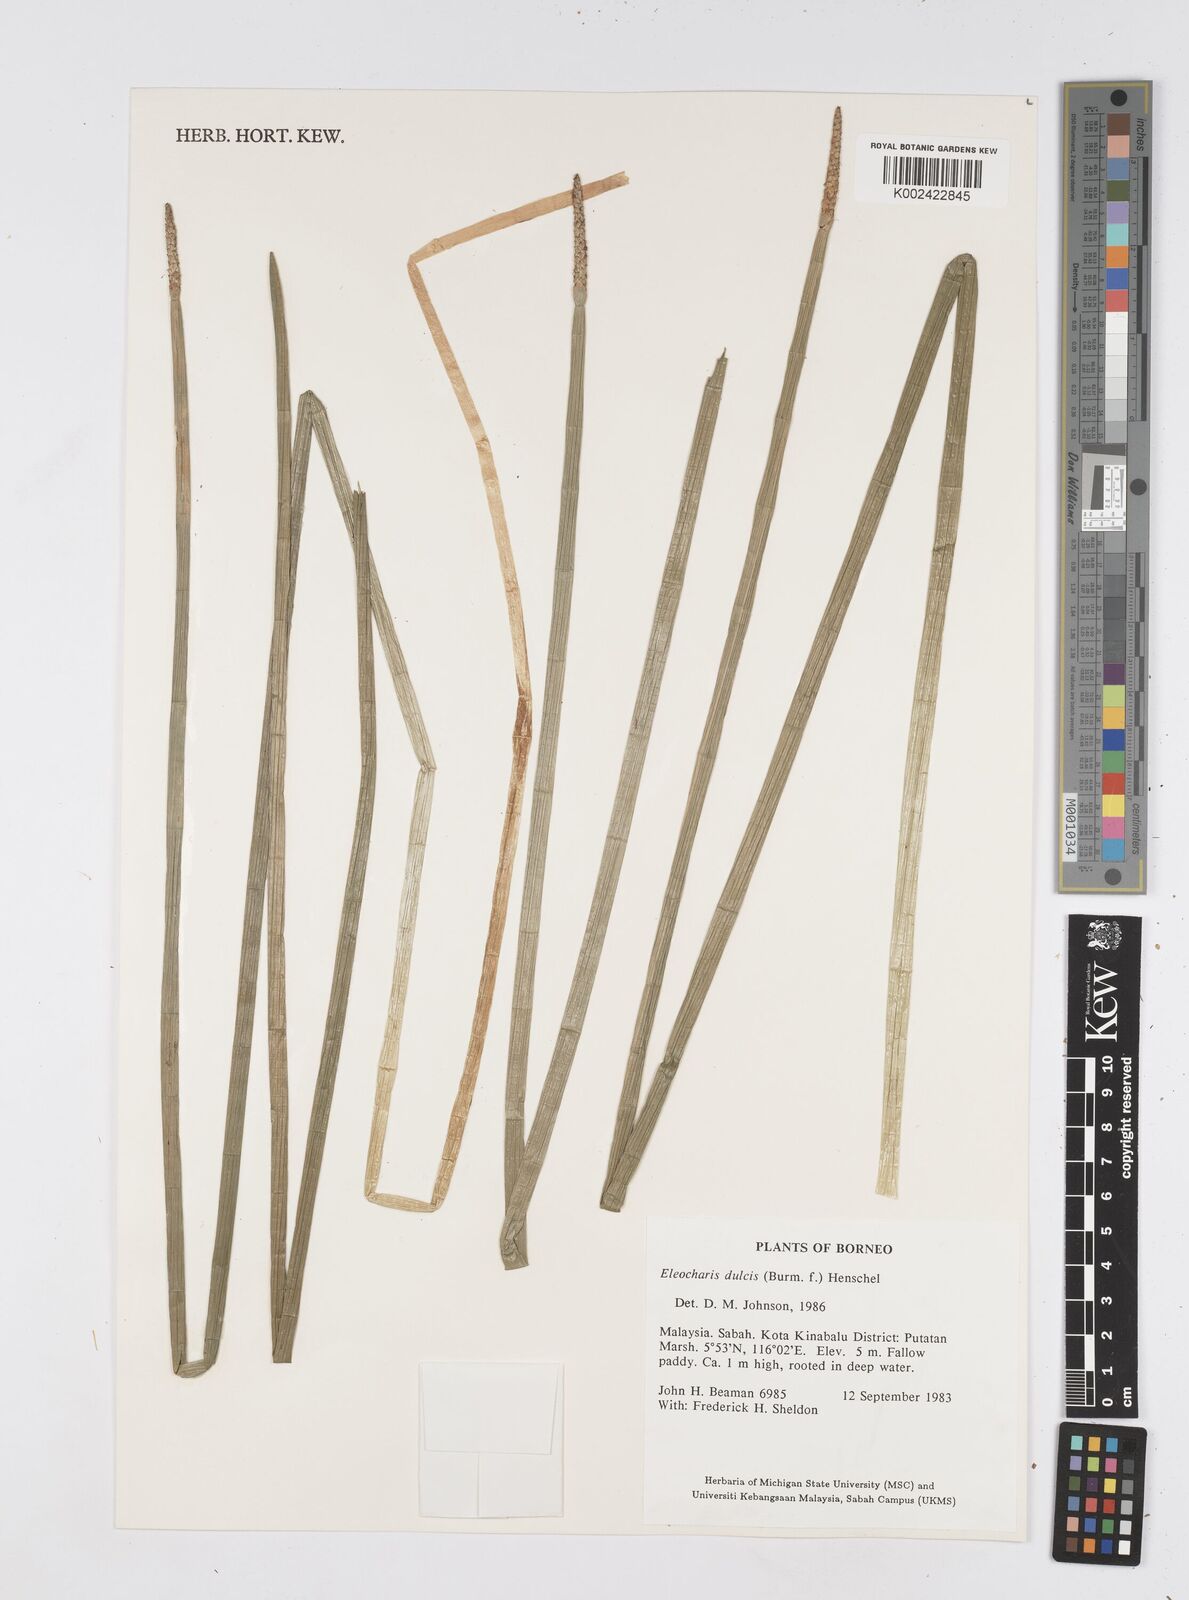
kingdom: Plantae
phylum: Tracheophyta
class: Liliopsida
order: Poales
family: Cyperaceae
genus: Eleocharis
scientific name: Eleocharis dulcis
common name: Chinese water chestnut
